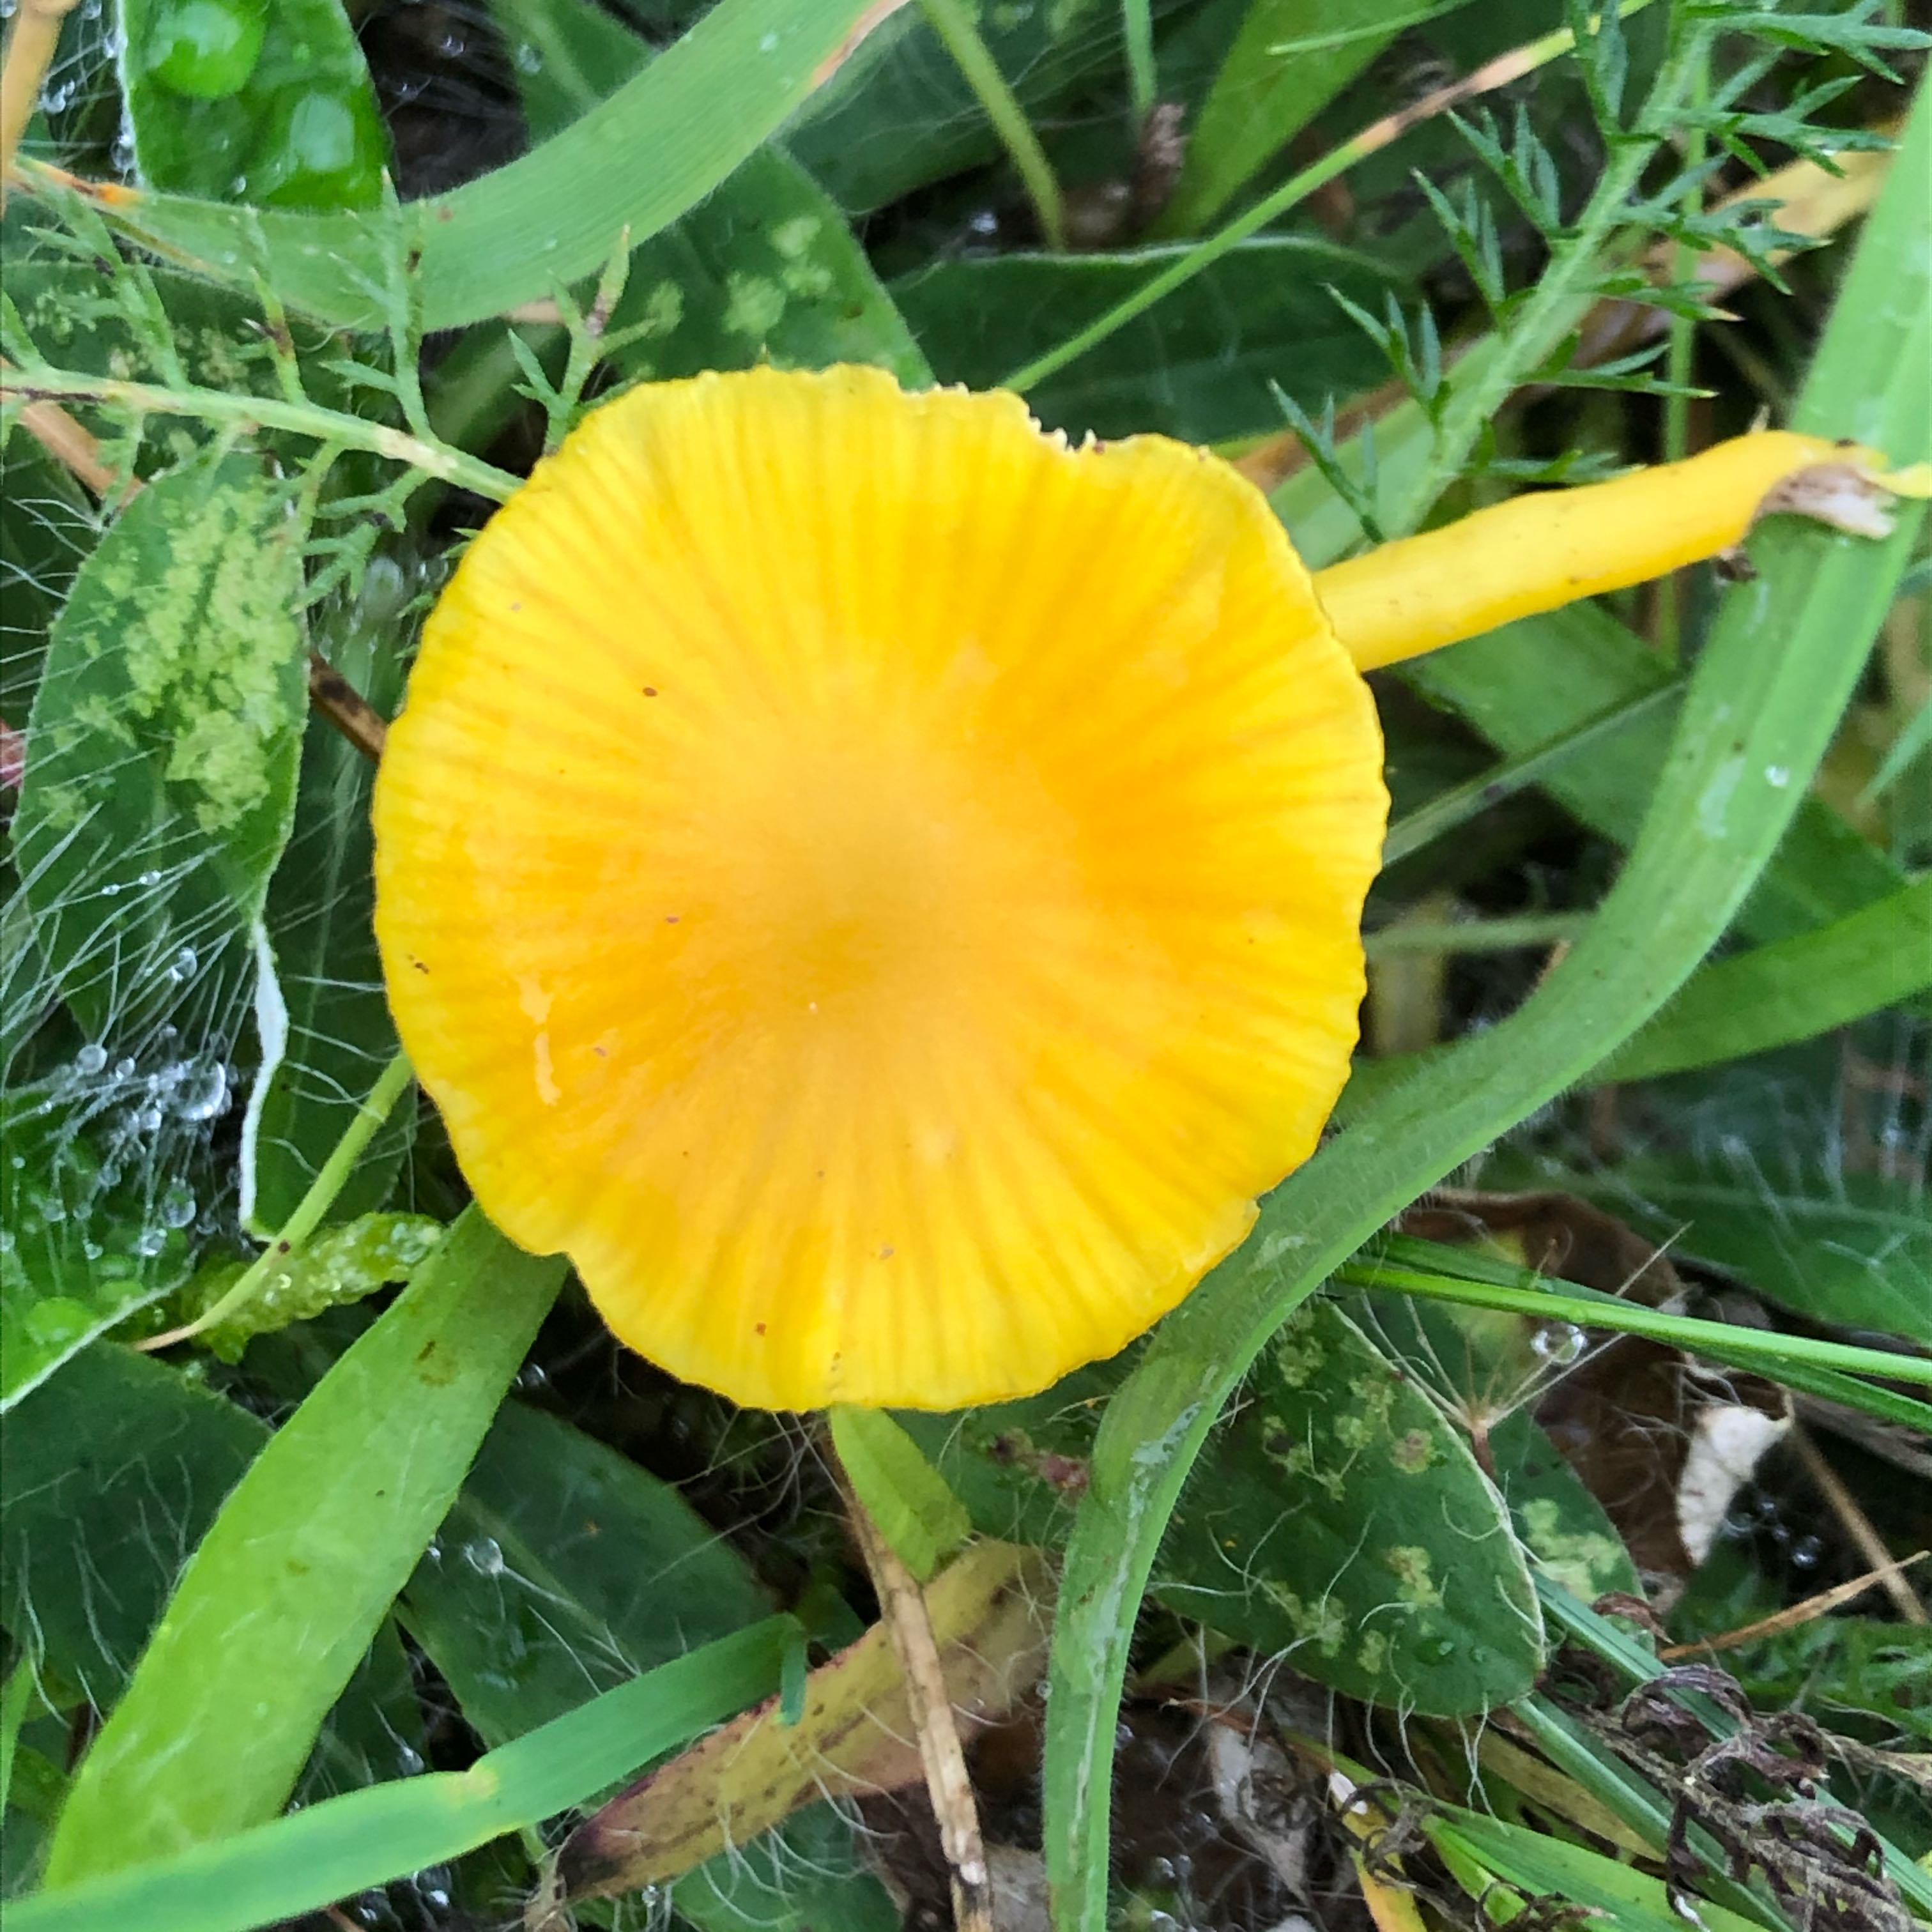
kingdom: Fungi
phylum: Basidiomycota
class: Agaricomycetes
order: Agaricales
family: Hygrophoraceae
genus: Hygrocybe
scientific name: Hygrocybe ceracea
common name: voksgul vokshat
